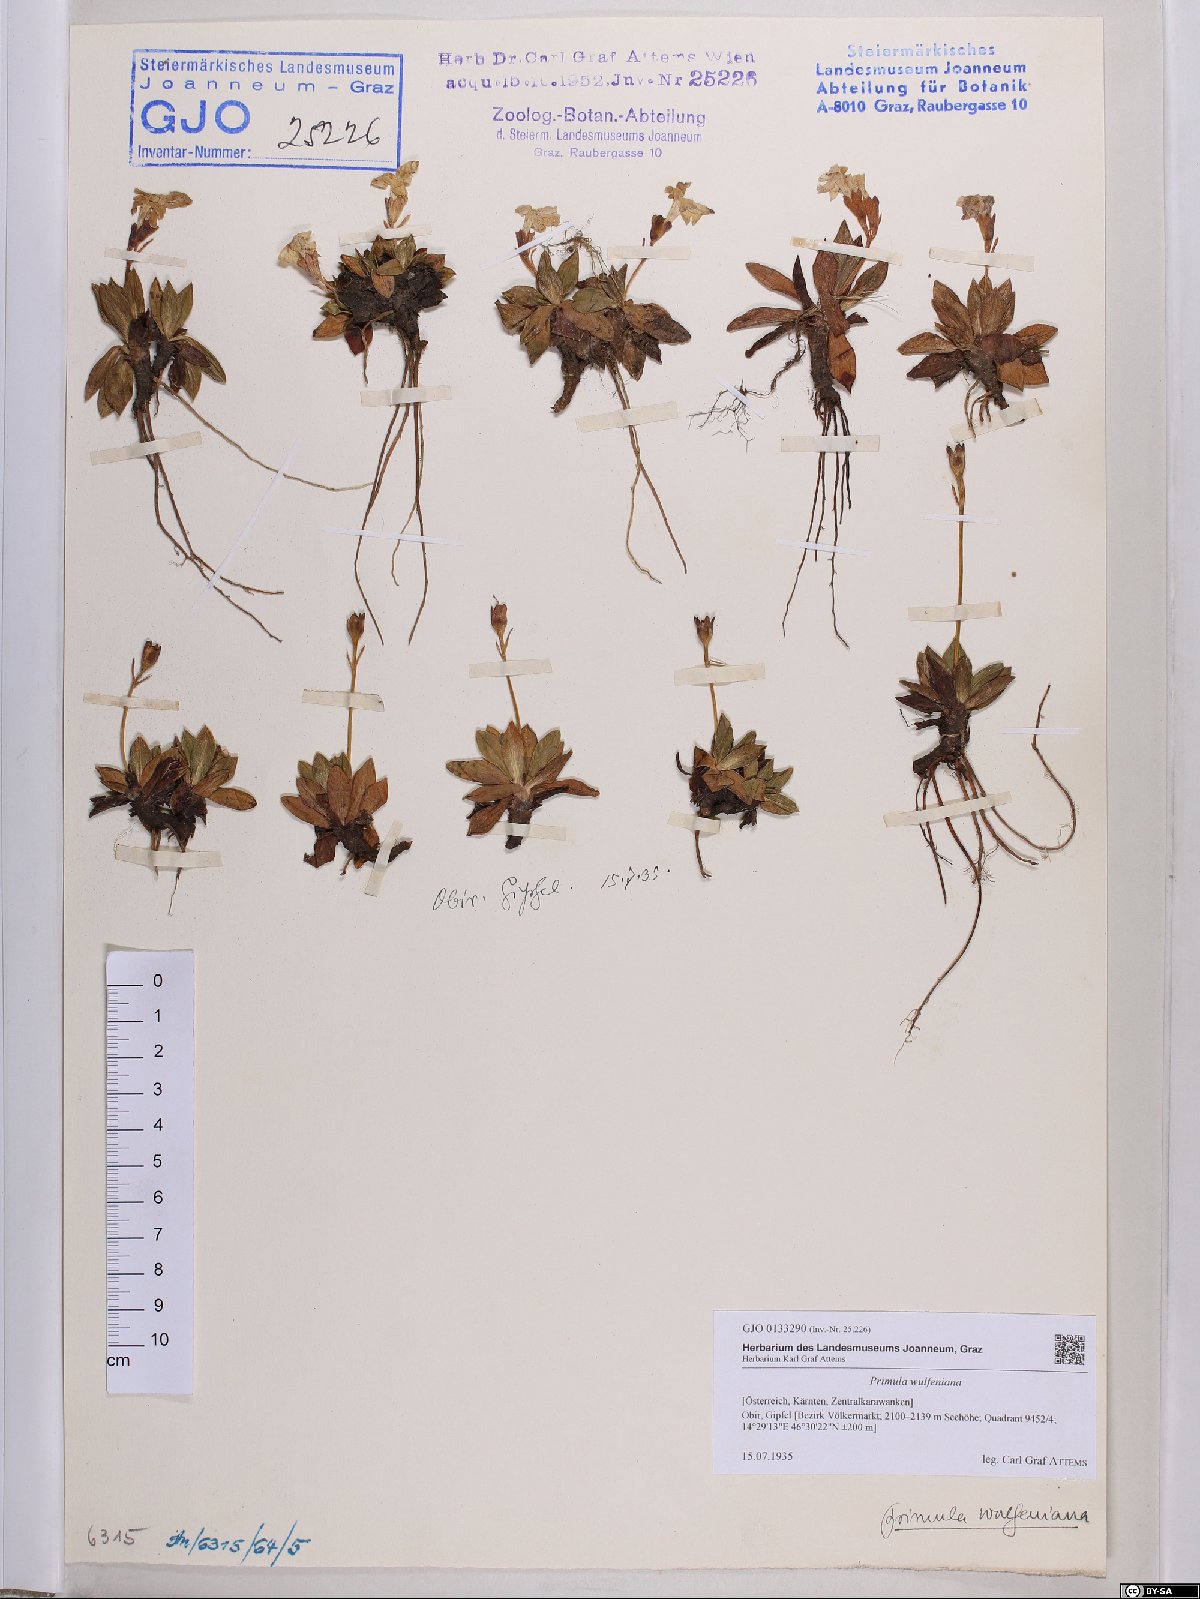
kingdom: Plantae
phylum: Tracheophyta
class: Magnoliopsida
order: Ericales
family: Primulaceae
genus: Primula
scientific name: Primula wulfeniana
